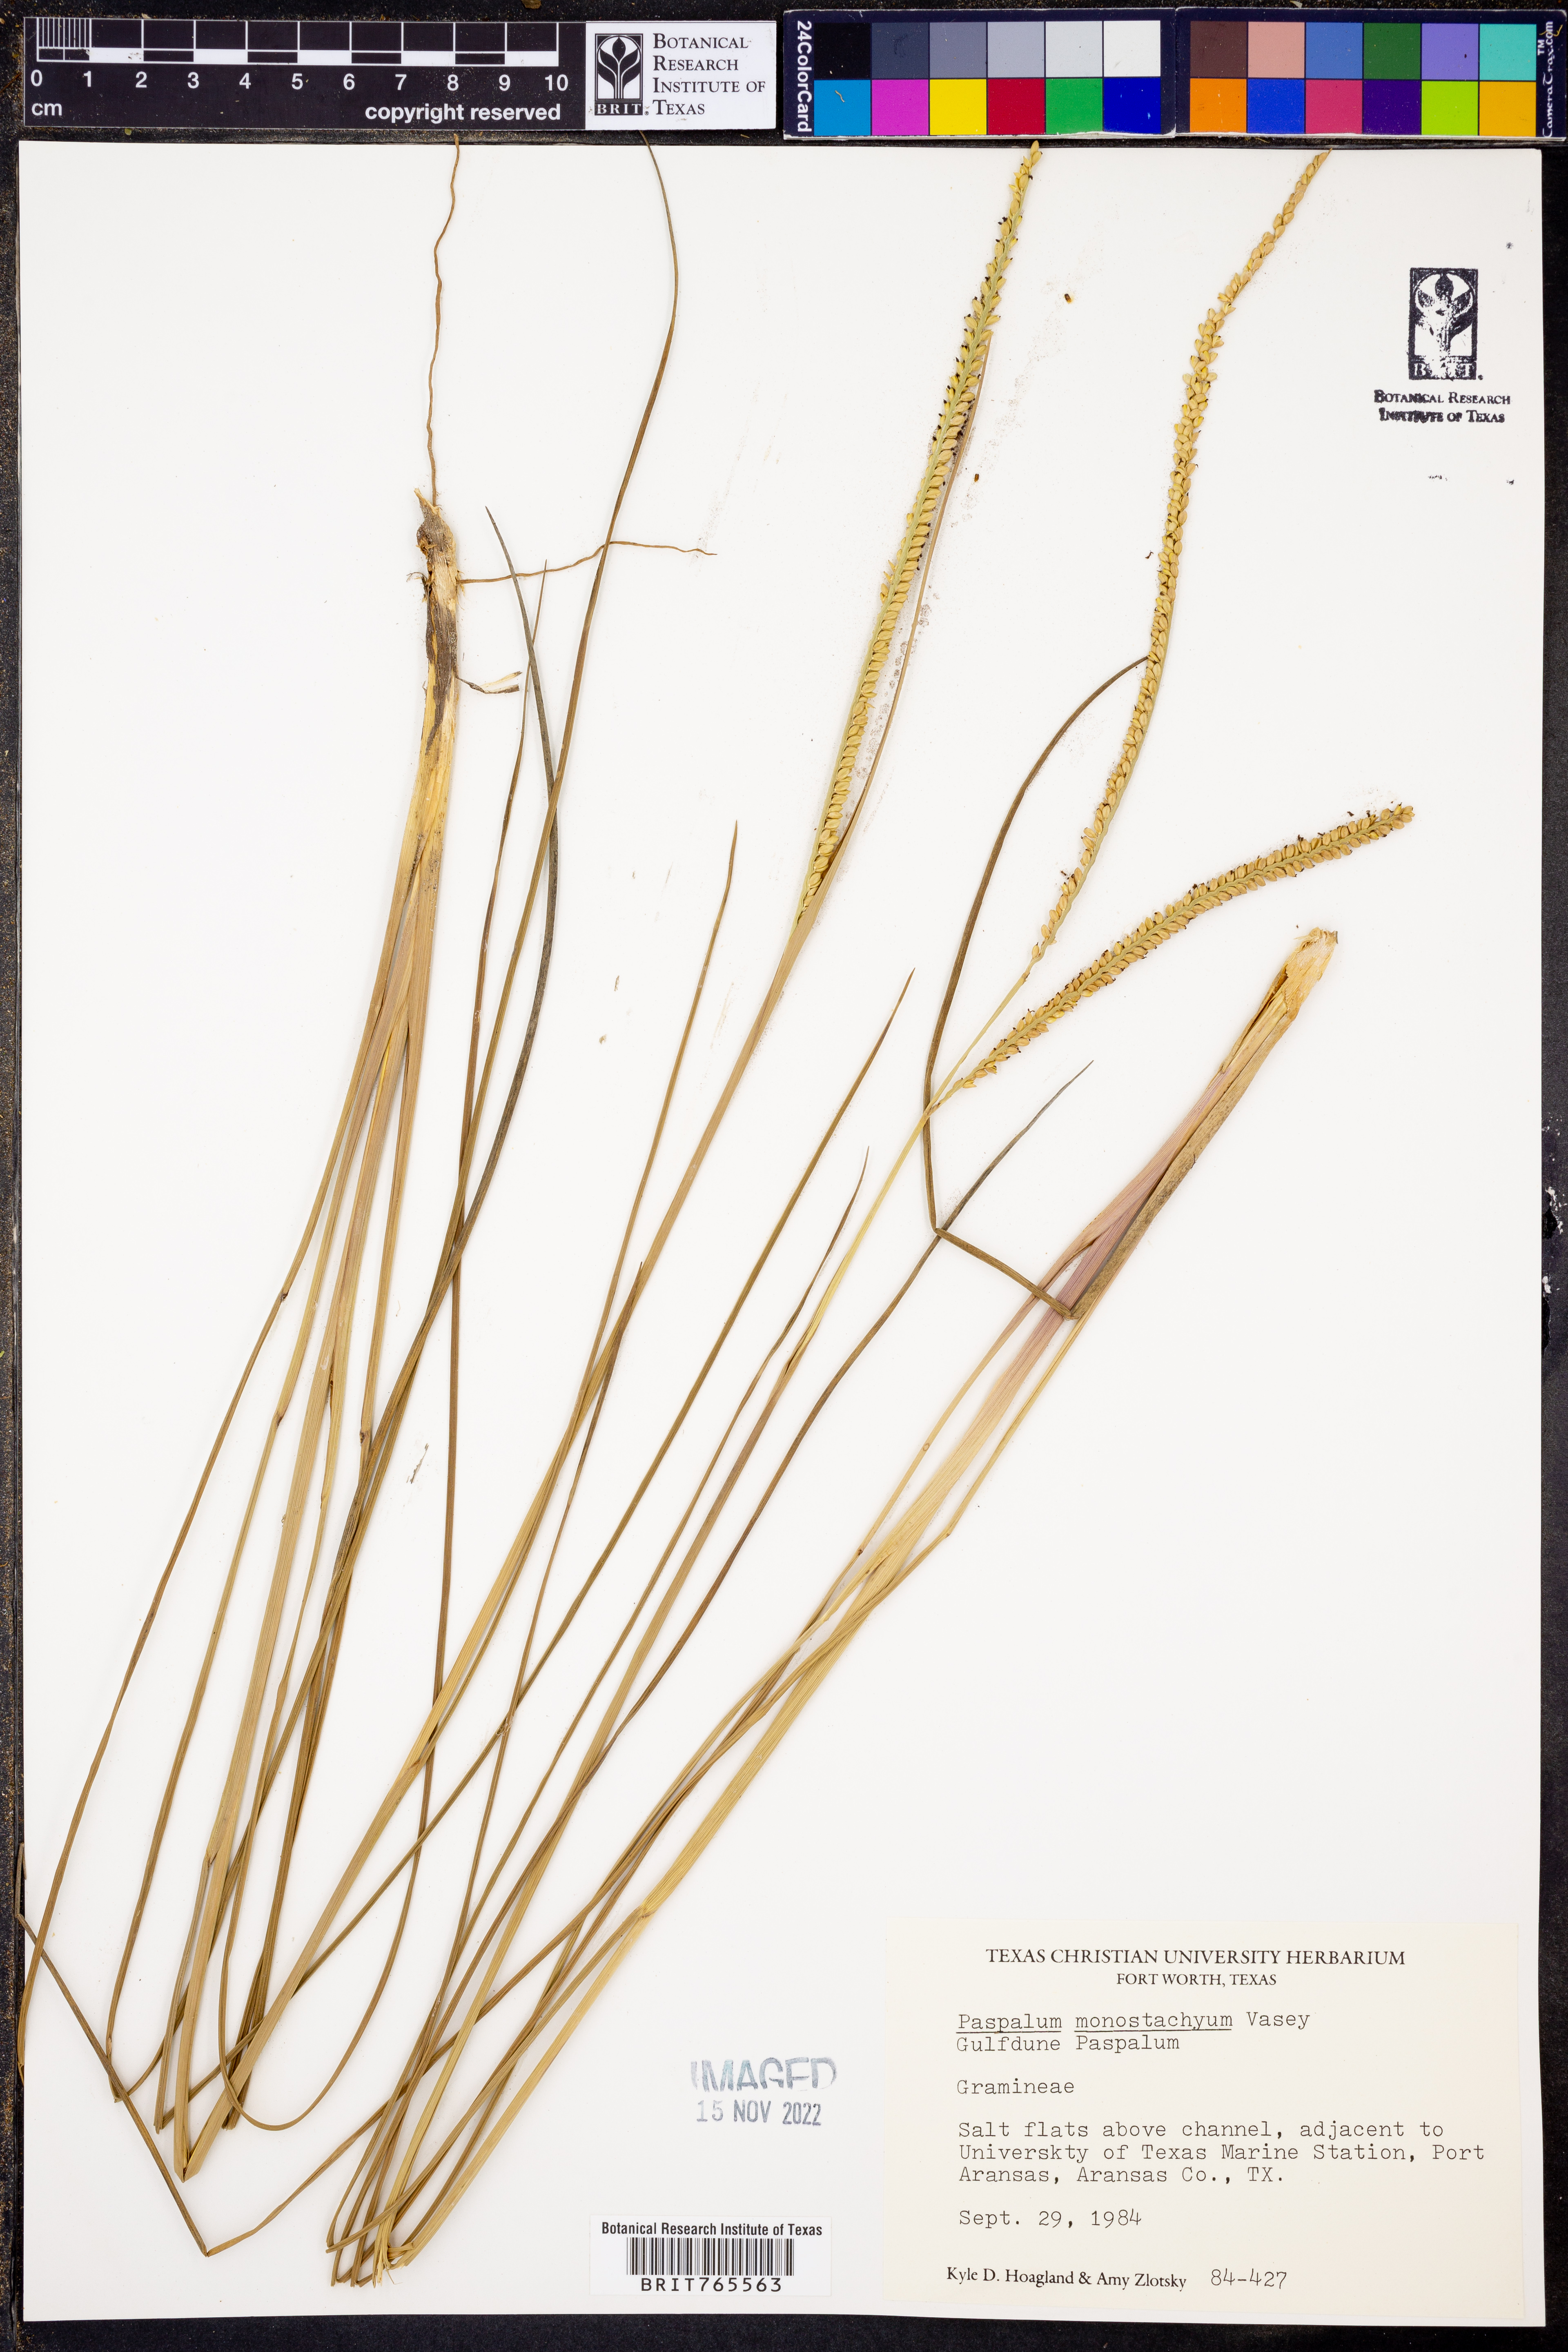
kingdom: Plantae
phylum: Tracheophyta
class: Liliopsida
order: Poales
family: Poaceae
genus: Paspalum
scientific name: Paspalum monostachyum
